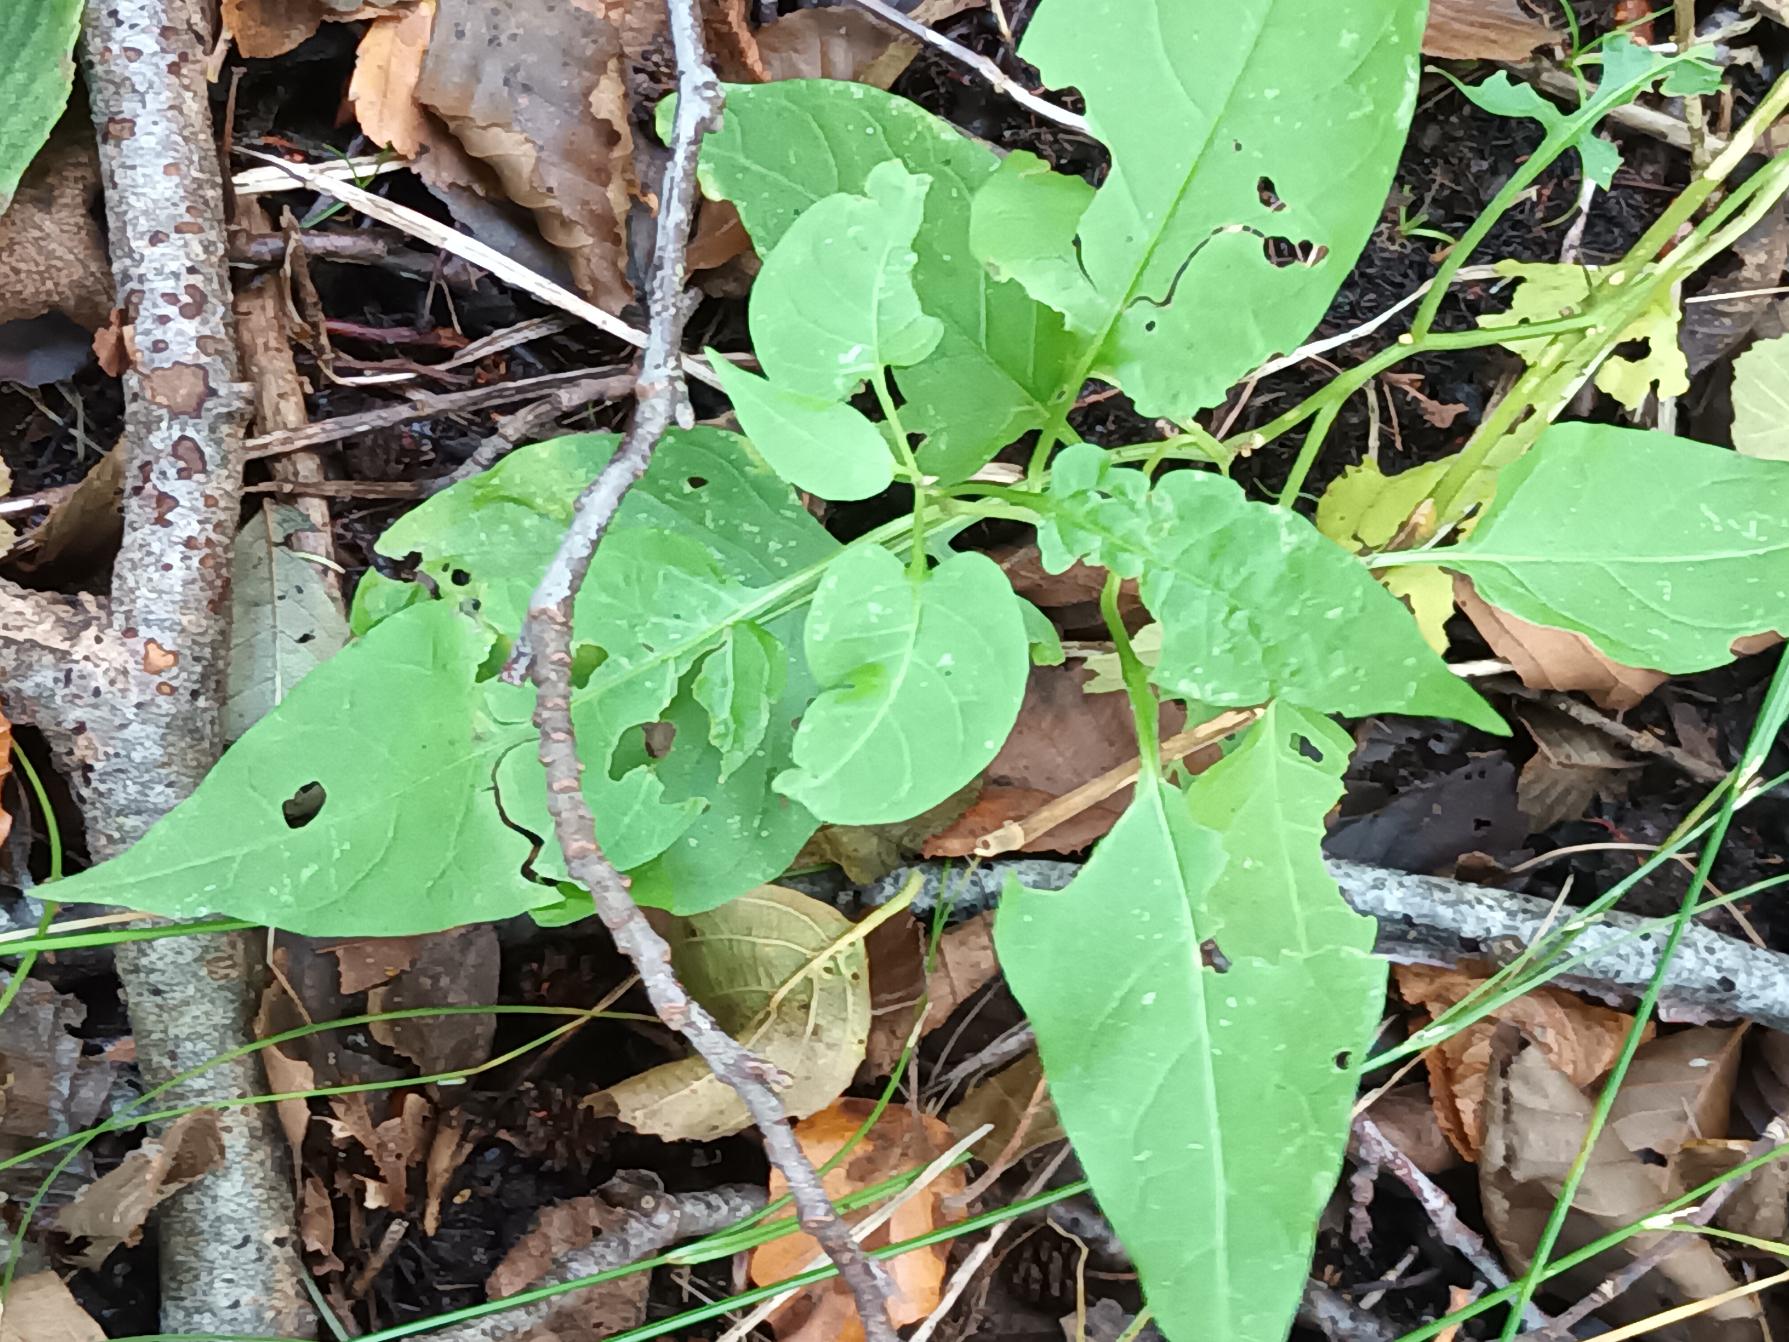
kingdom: Plantae
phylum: Tracheophyta
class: Magnoliopsida
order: Solanales
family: Solanaceae
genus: Solanum
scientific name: Solanum dulcamara
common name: Bittersød natskygge
